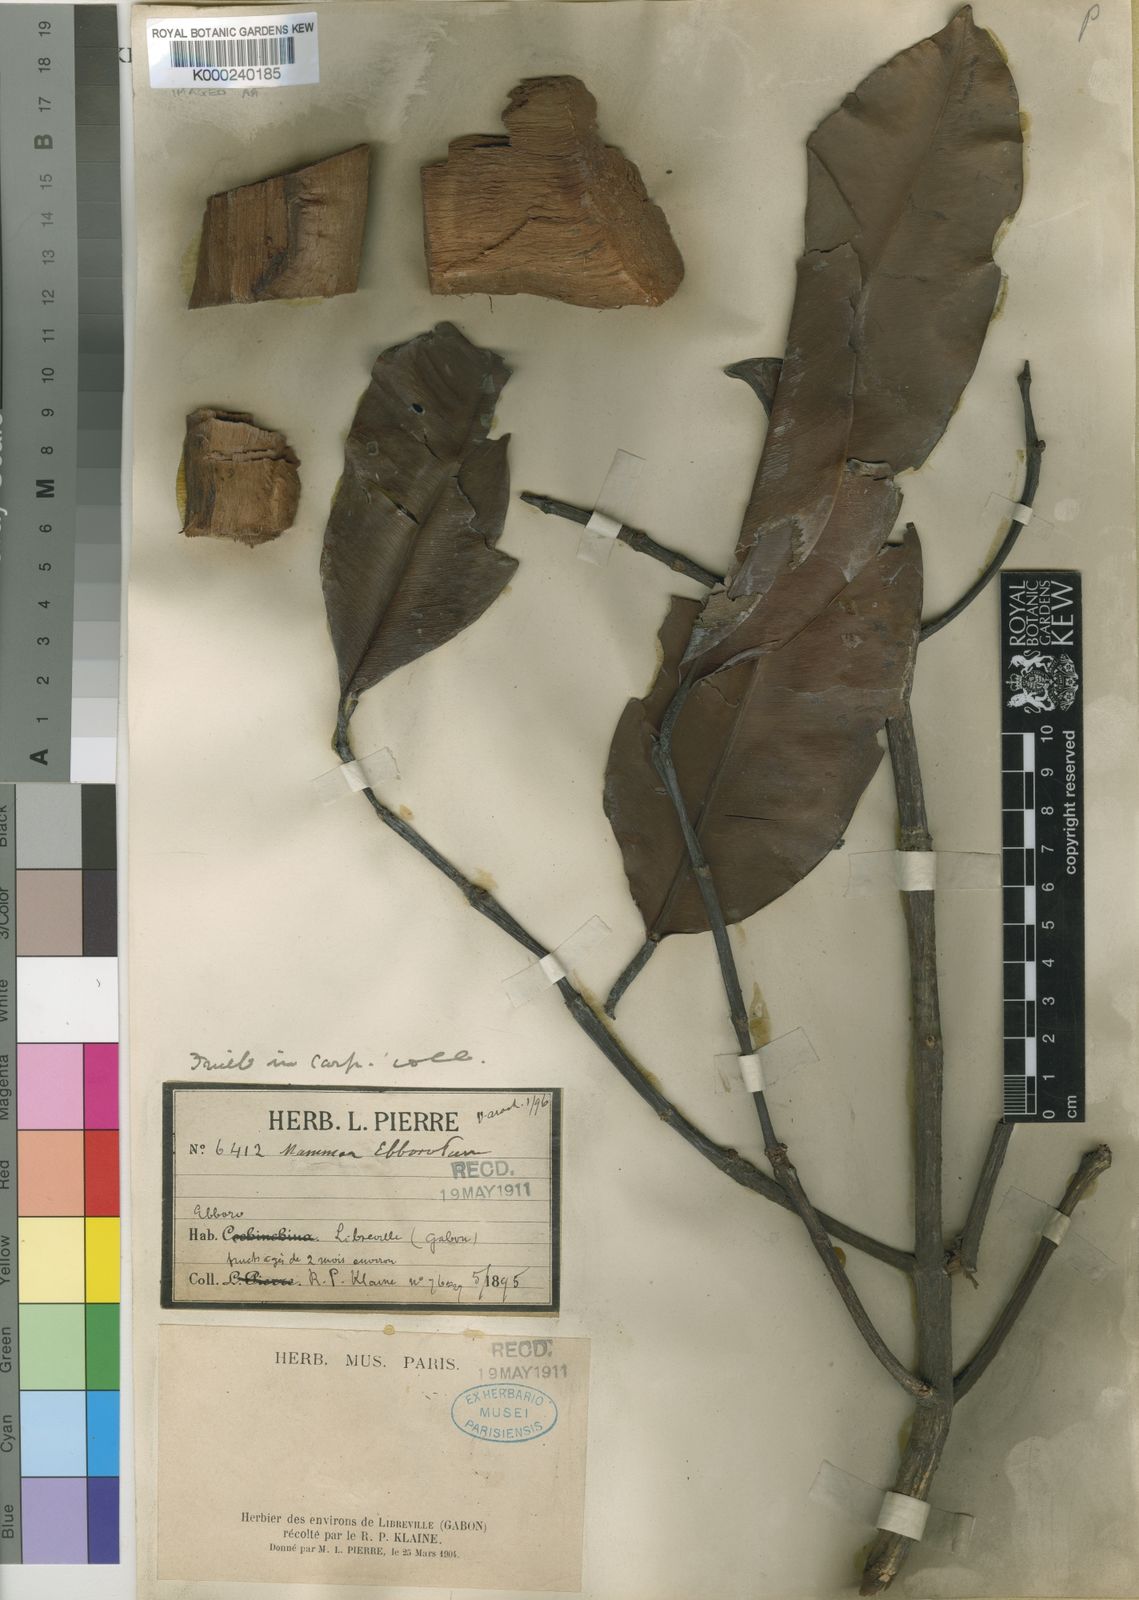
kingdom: Plantae
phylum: Tracheophyta
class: Magnoliopsida
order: Malpighiales
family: Calophyllaceae
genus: Mammea
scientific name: Mammea
